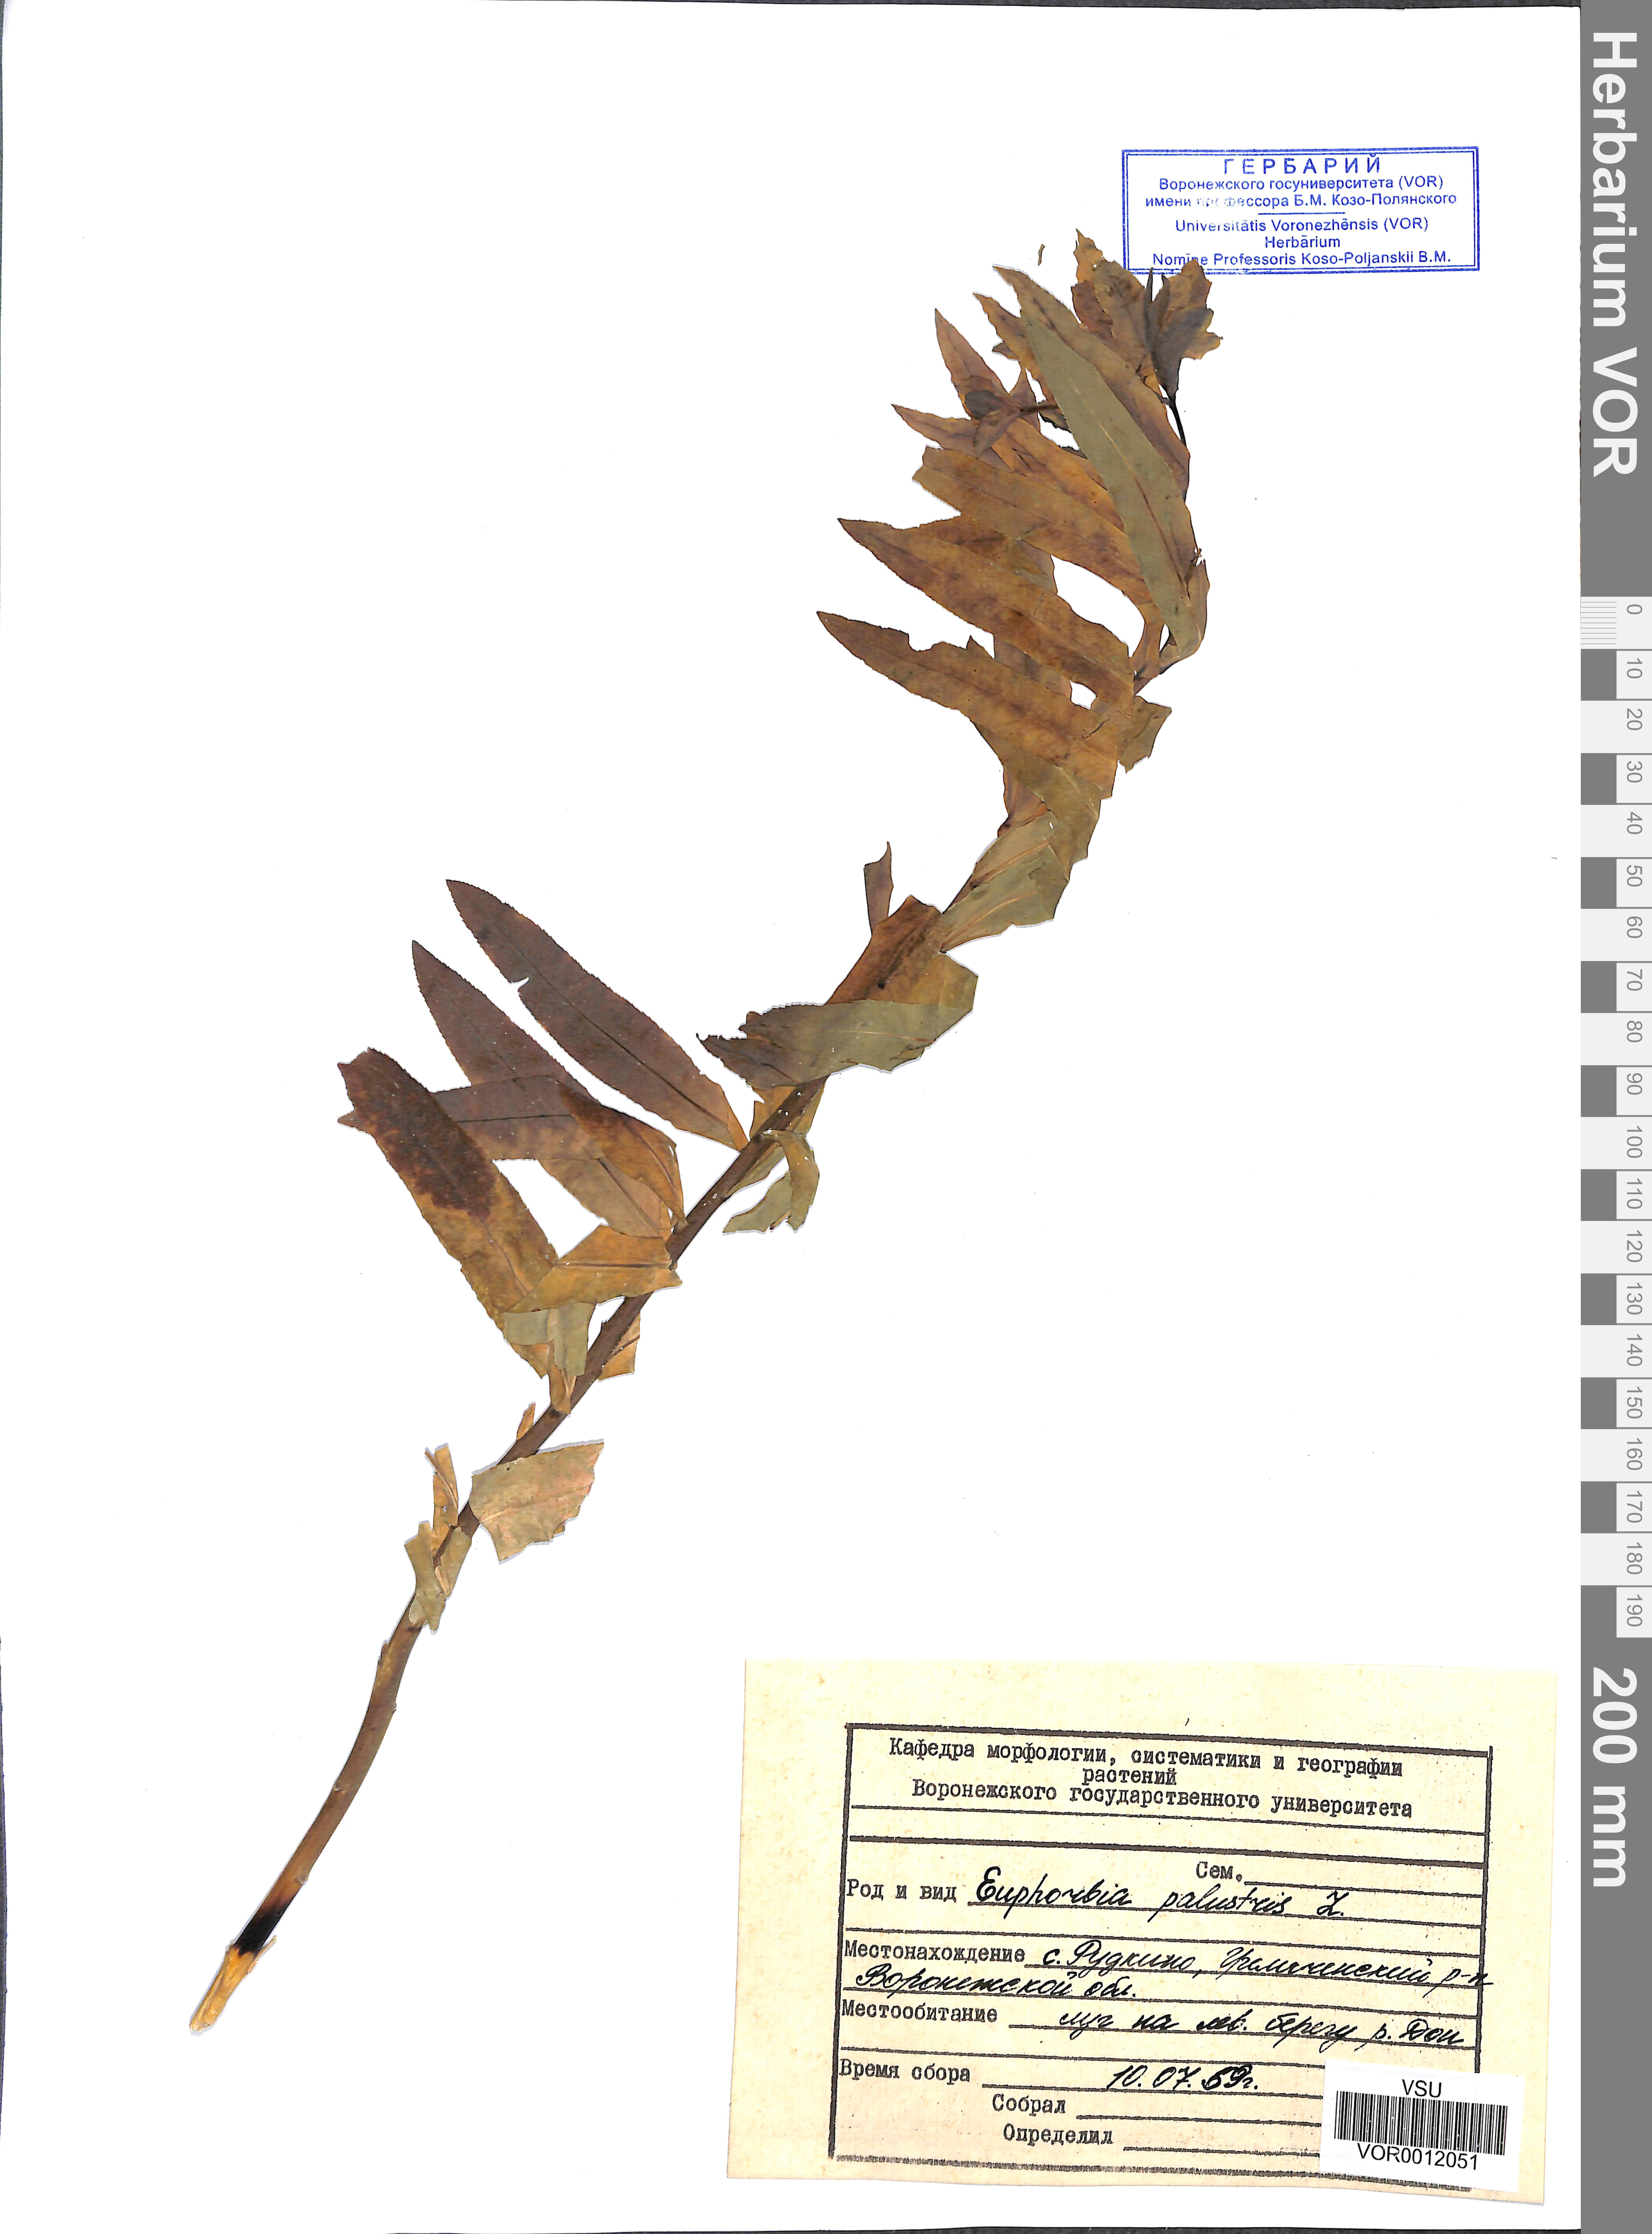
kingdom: Plantae
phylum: Tracheophyta
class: Magnoliopsida
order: Malpighiales
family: Euphorbiaceae
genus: Euphorbia
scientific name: Euphorbia palustris
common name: Marsh spurge
